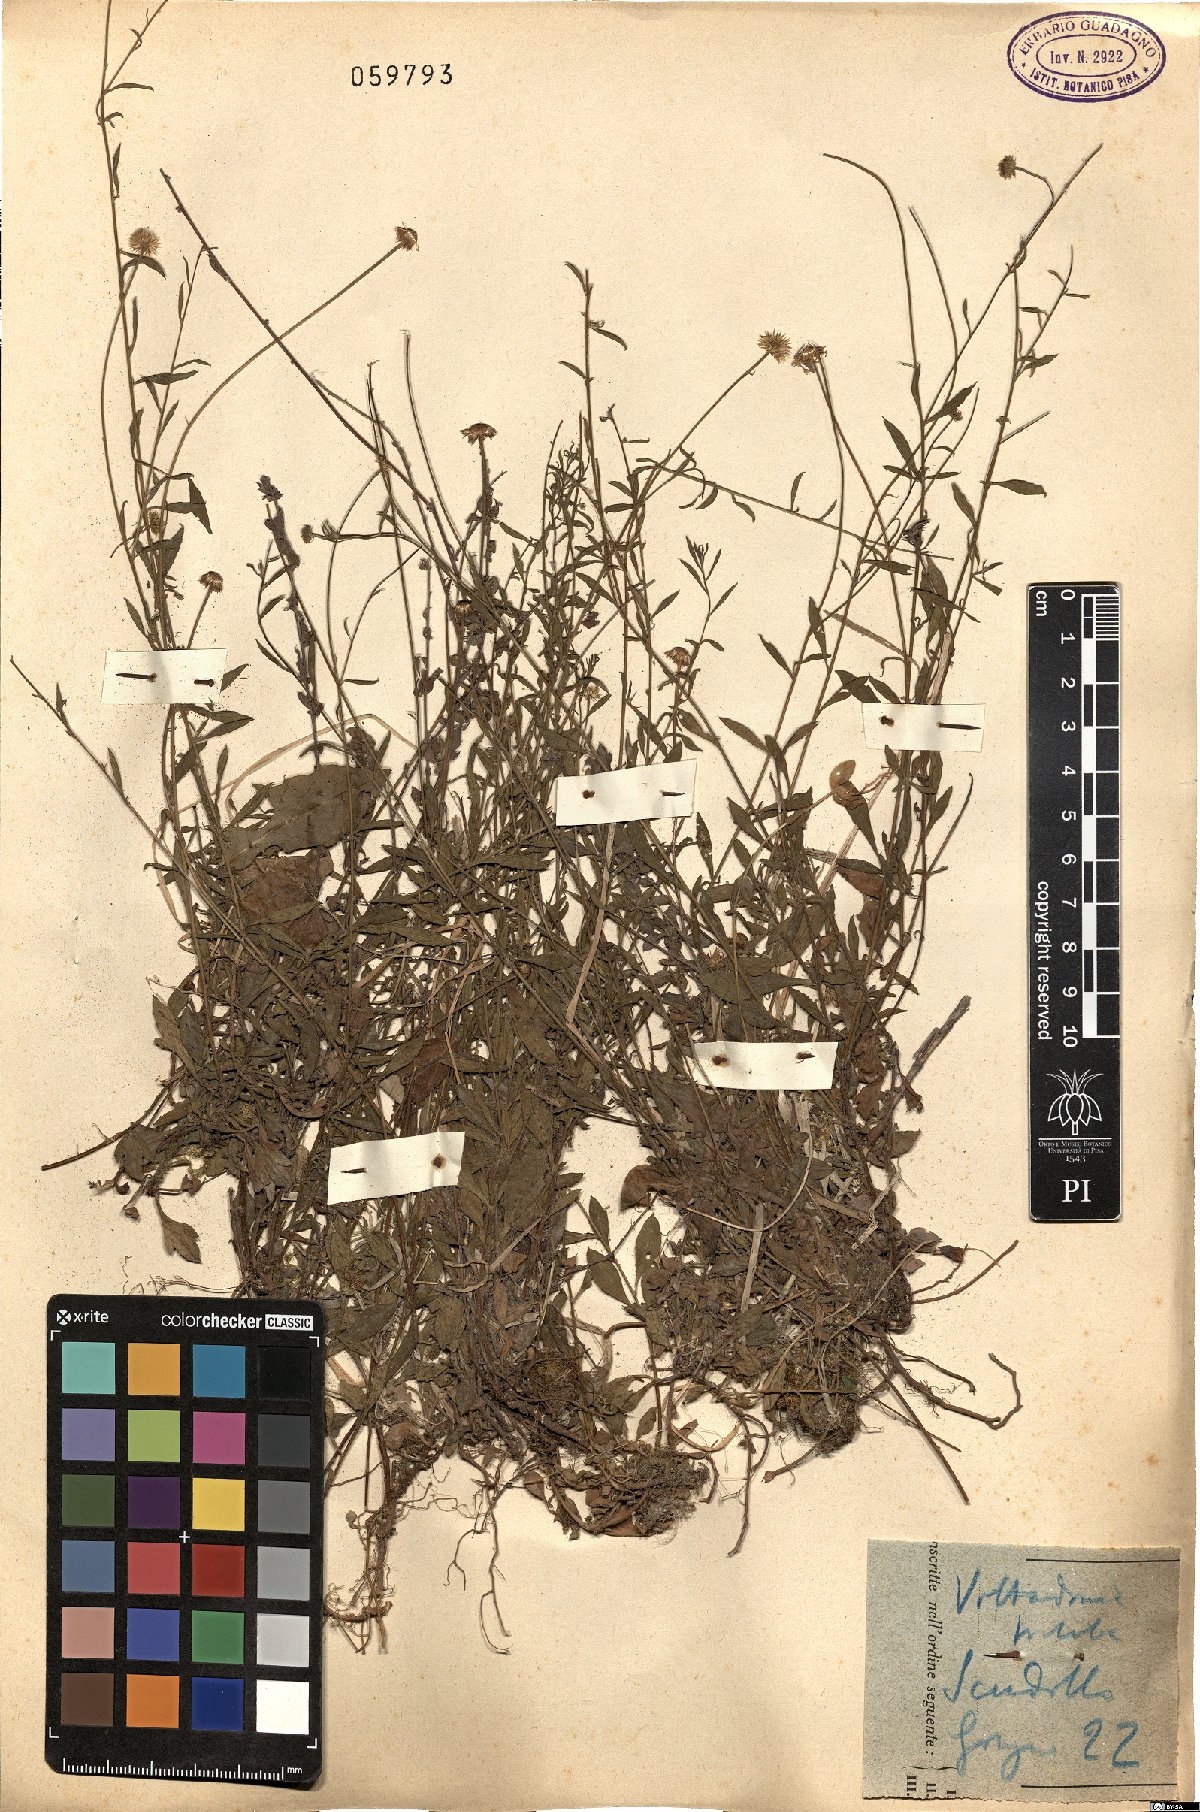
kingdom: Plantae
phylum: Tracheophyta
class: Magnoliopsida
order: Asterales
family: Asteraceae
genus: Vittadinia
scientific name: Vittadinia triloba
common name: Fuzzweed
